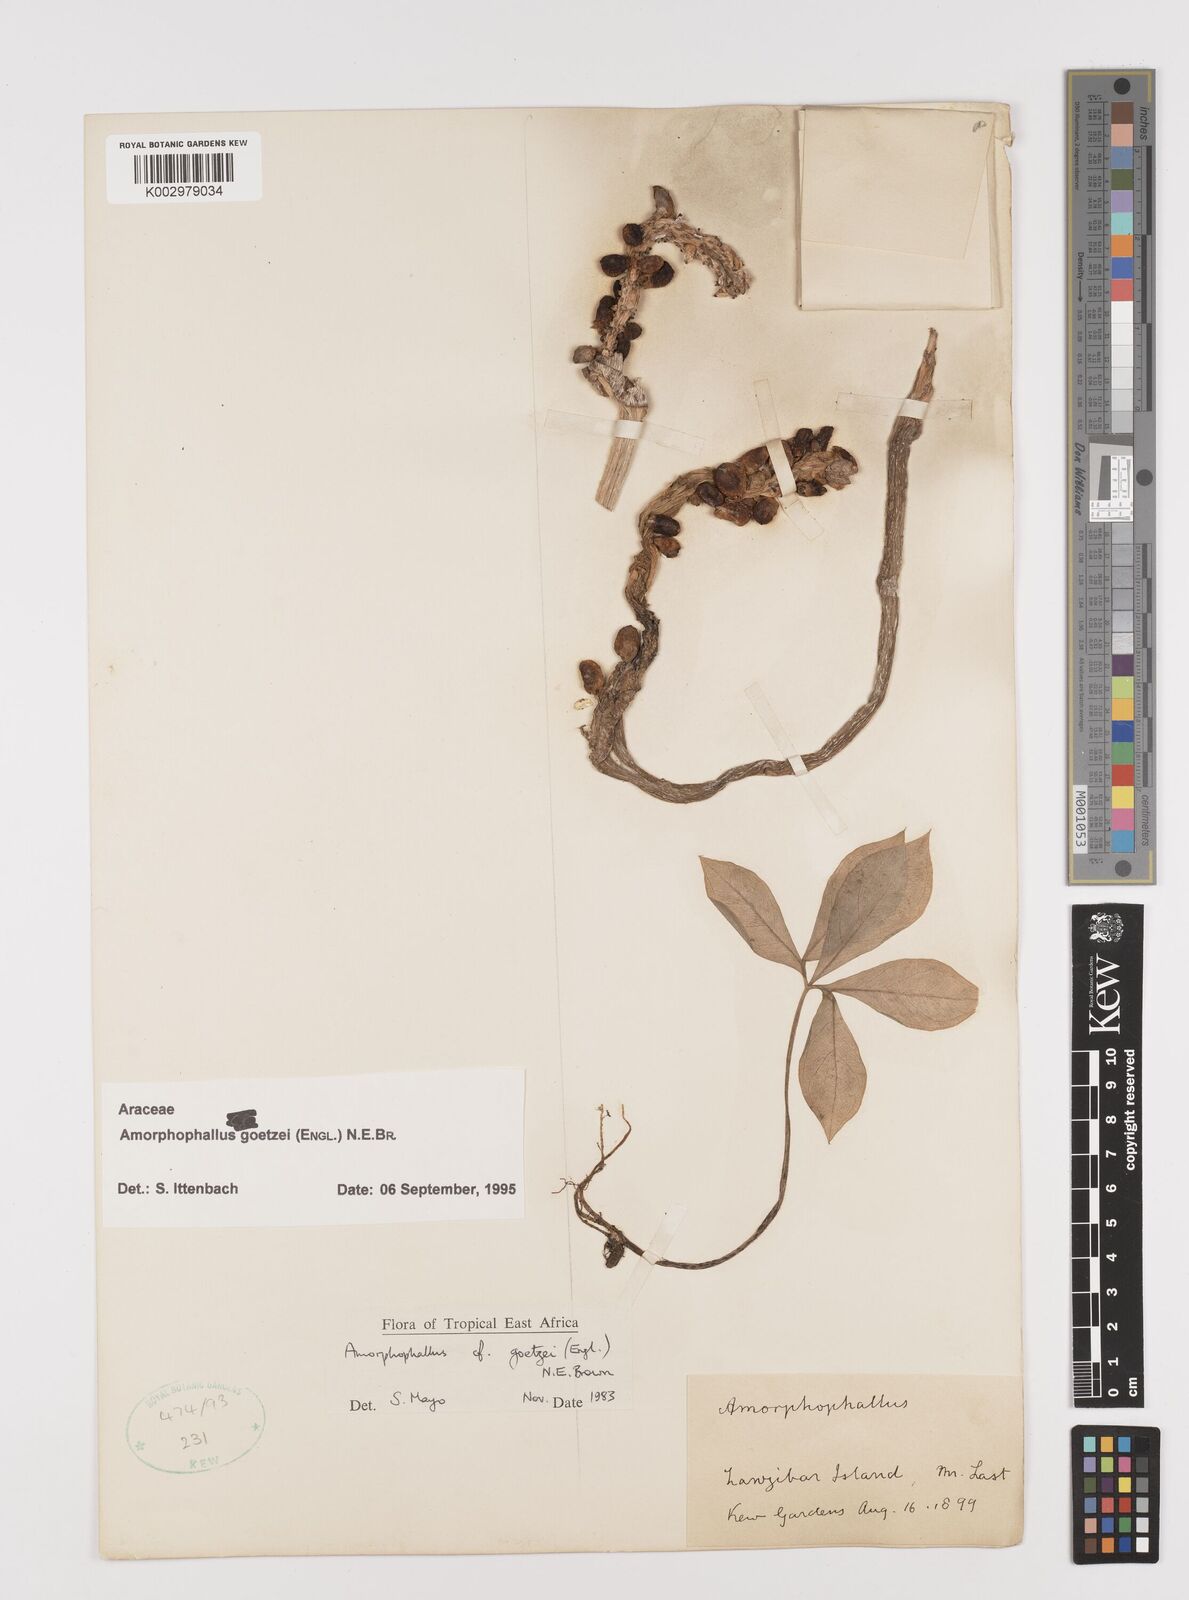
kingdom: Plantae
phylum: Tracheophyta
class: Liliopsida
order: Alismatales
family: Araceae
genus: Amorphophallus
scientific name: Amorphophallus goetzei
